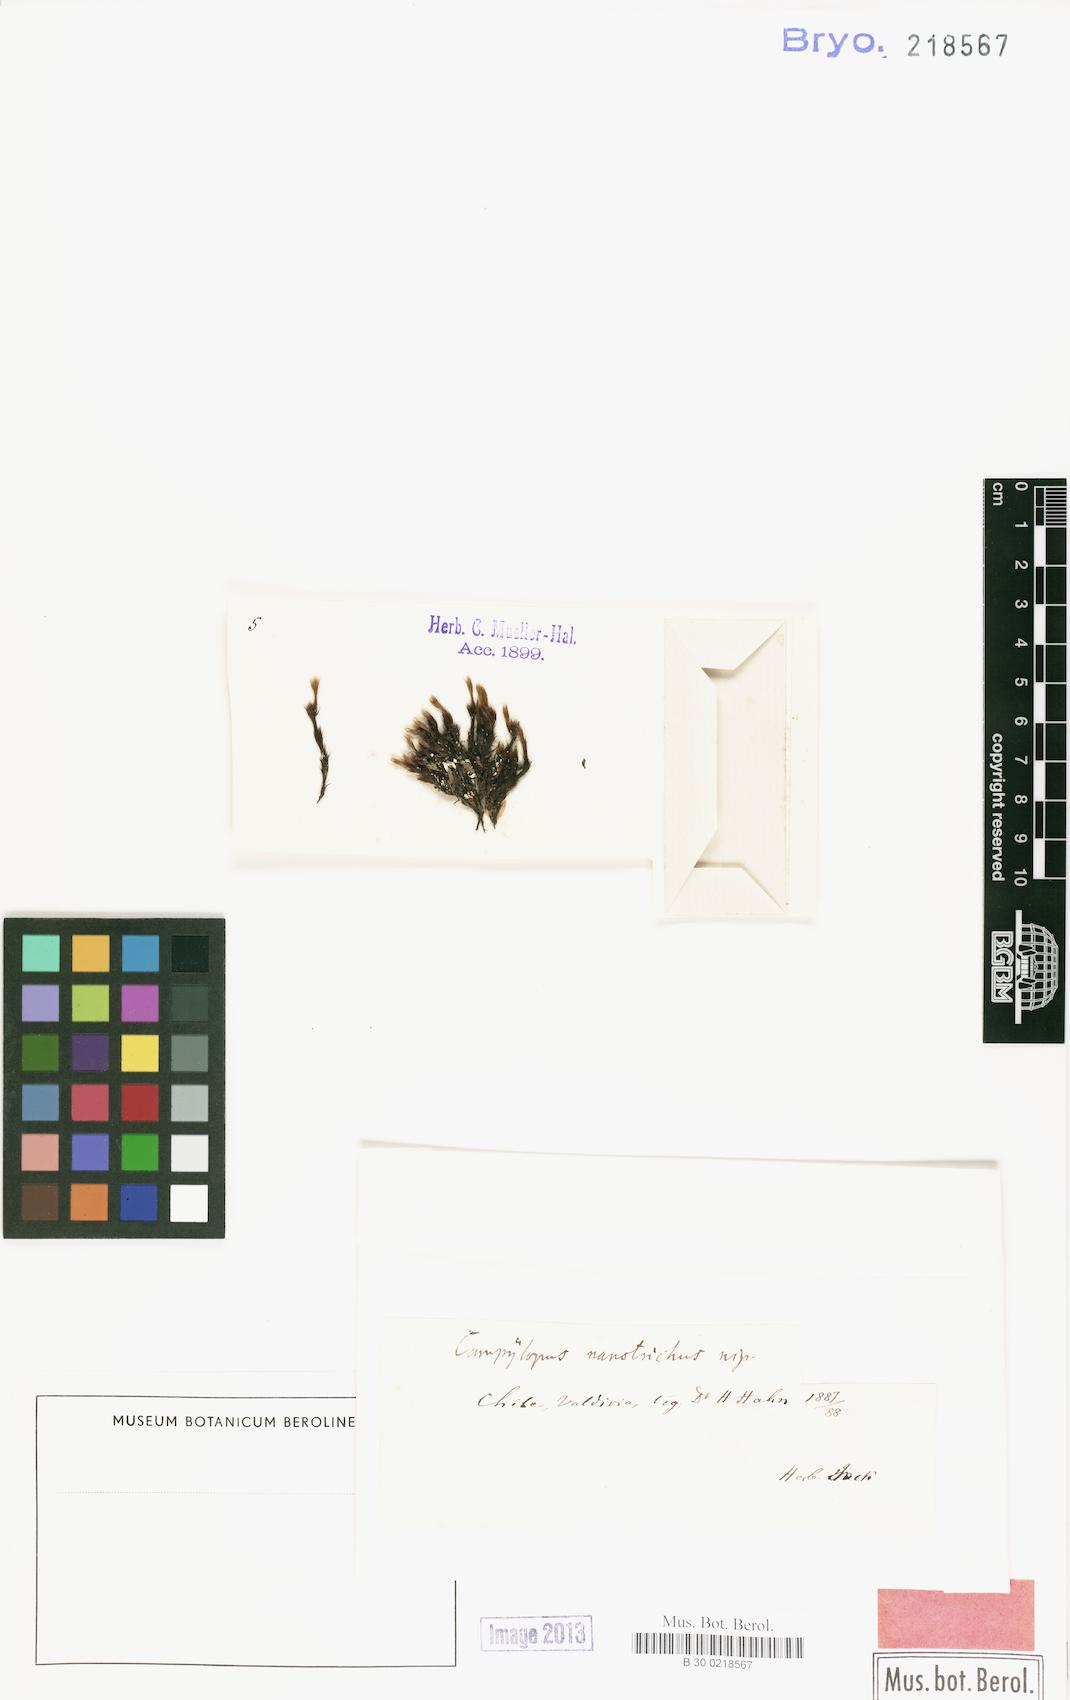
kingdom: Plantae
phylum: Bryophyta
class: Bryopsida
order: Dicranales
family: Dicranaceae
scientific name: Dicranaceae
